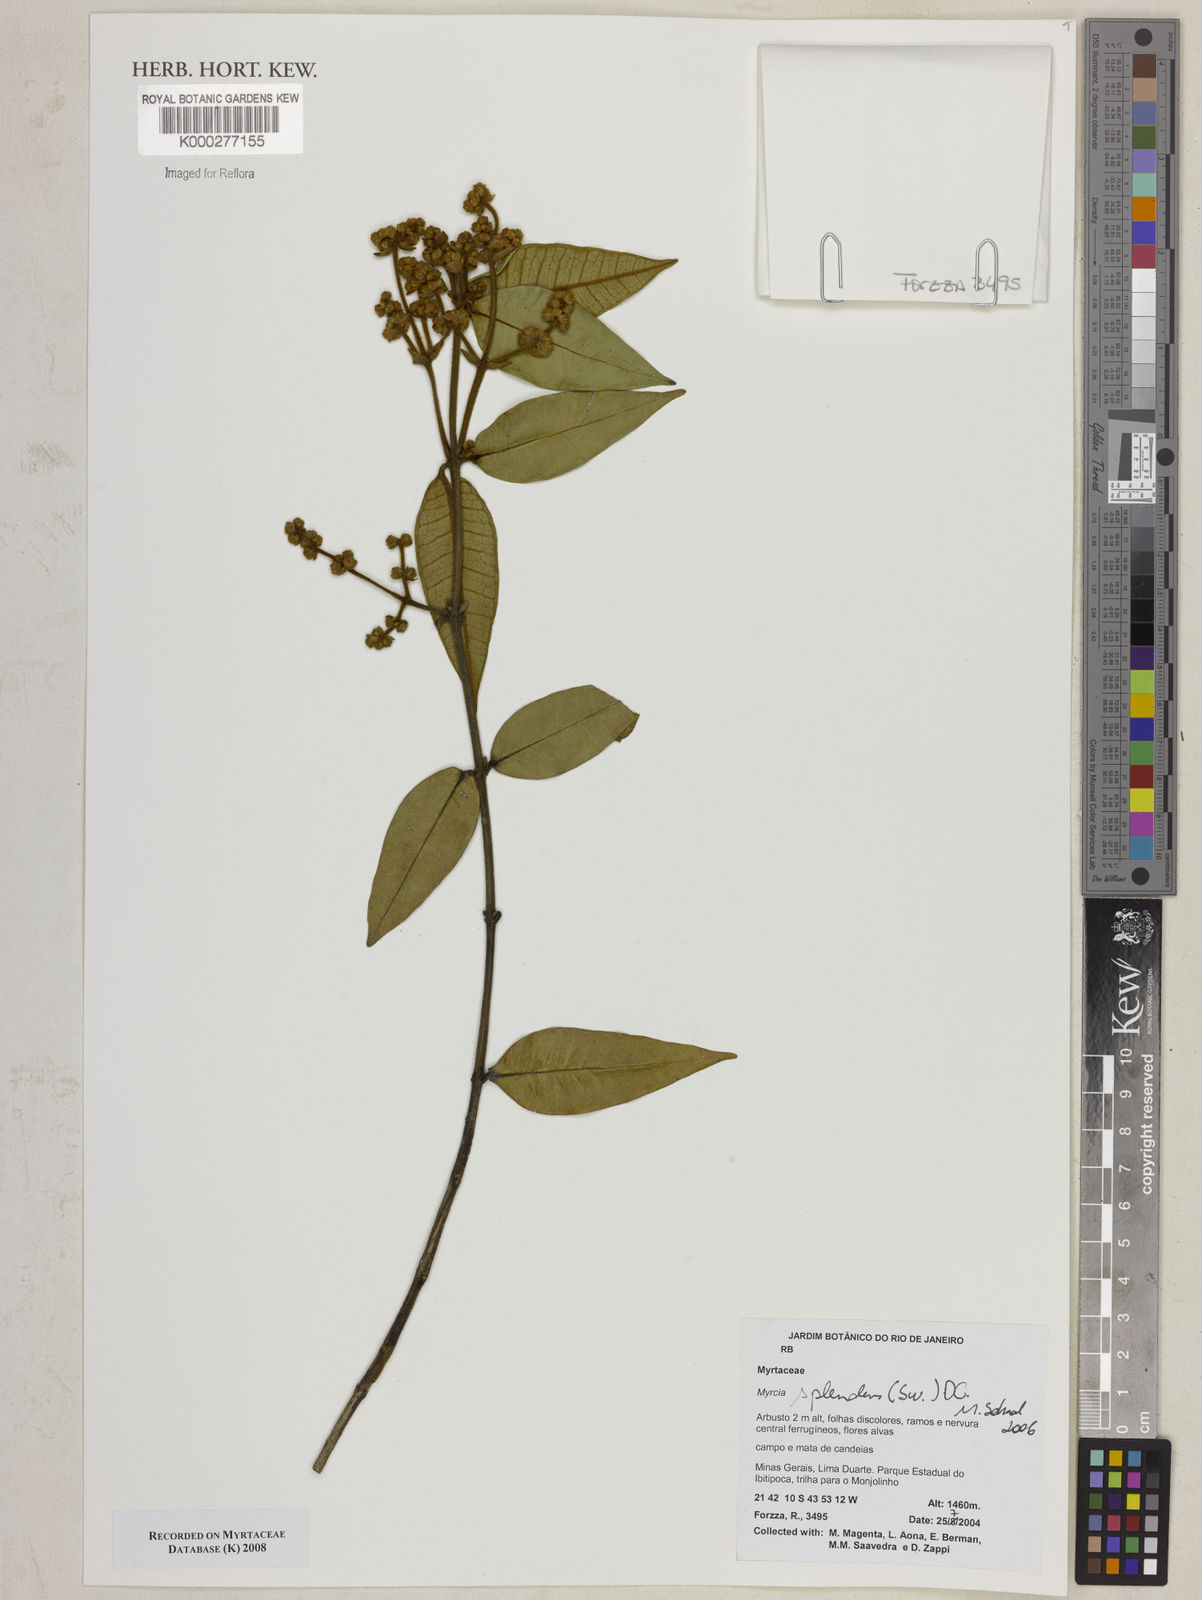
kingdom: Plantae
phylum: Tracheophyta
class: Magnoliopsida
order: Myrtales
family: Myrtaceae
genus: Myrcia
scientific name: Myrcia splendens
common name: Surinam cherry
